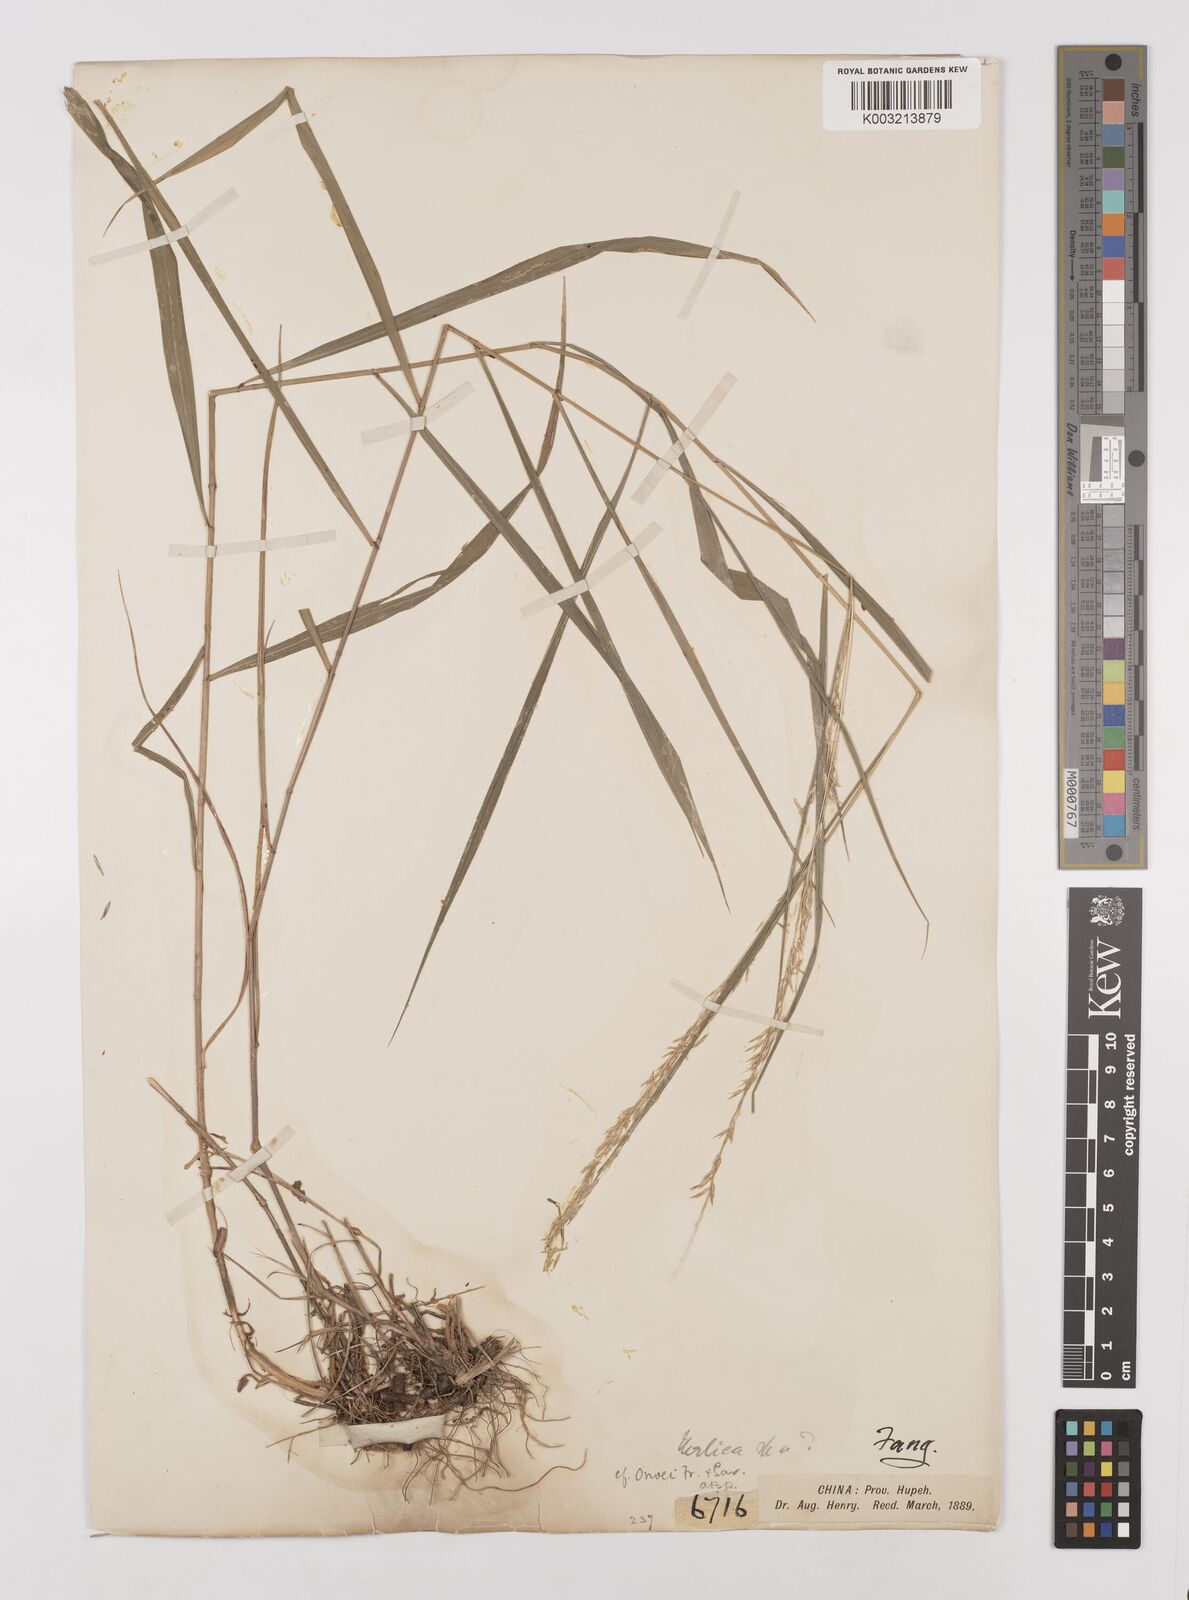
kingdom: Plantae
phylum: Tracheophyta
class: Liliopsida
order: Poales
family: Poaceae
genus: Melica
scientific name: Melica onoei
